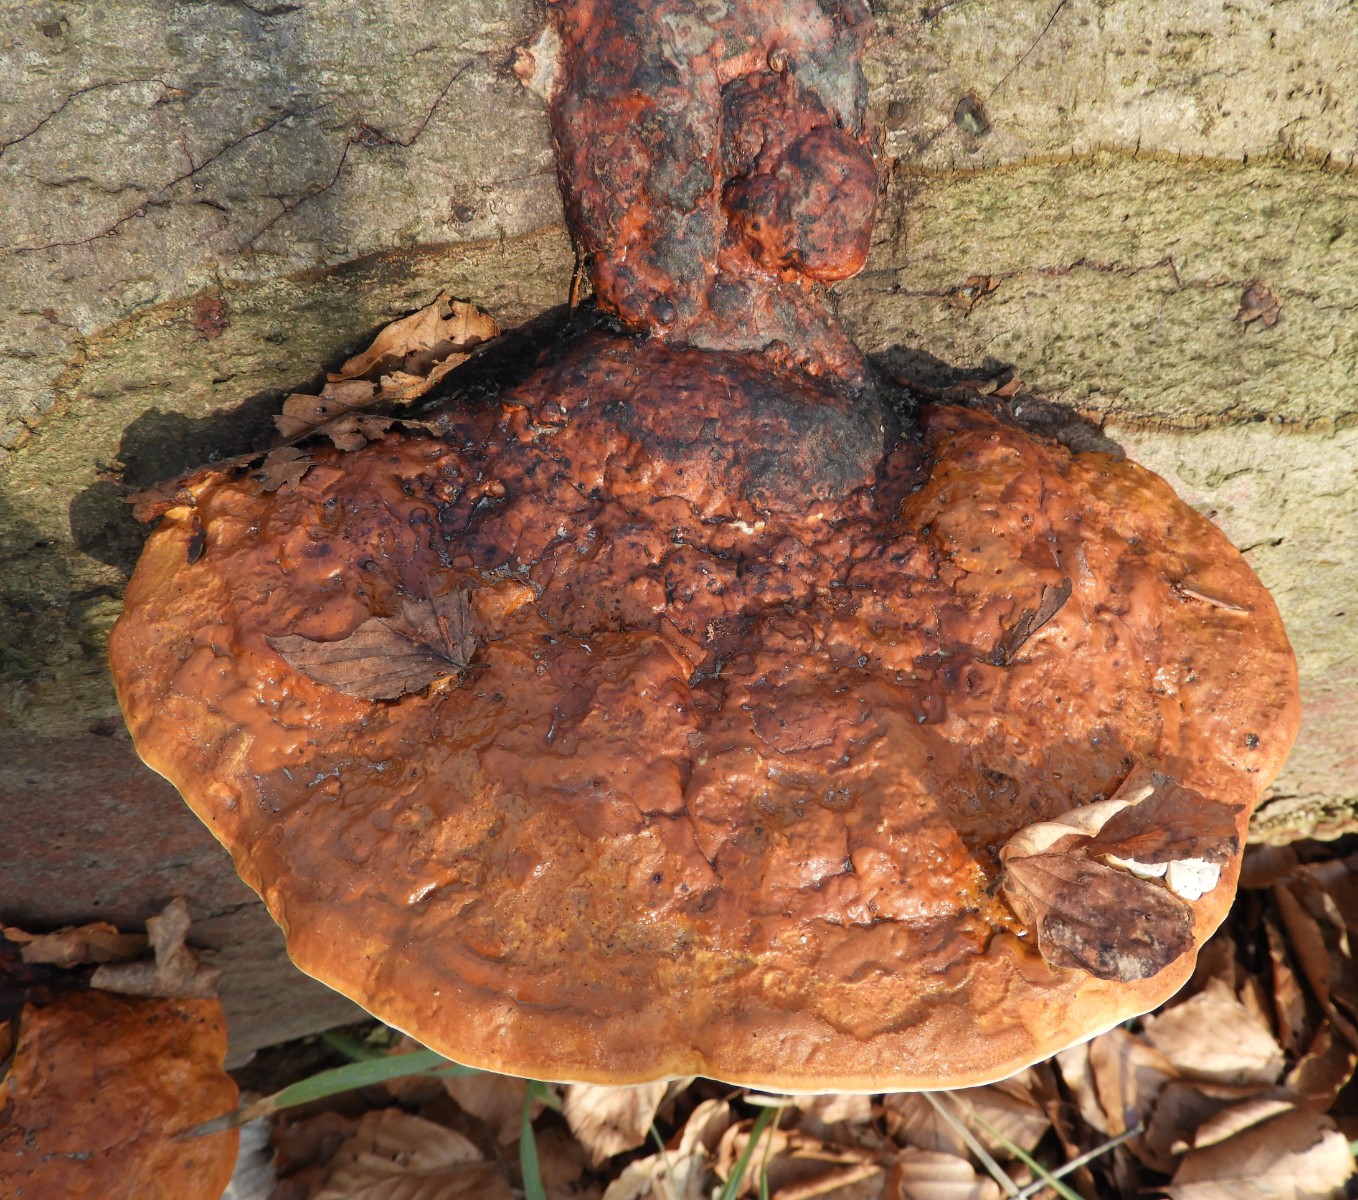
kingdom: Fungi
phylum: Basidiomycota
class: Agaricomycetes
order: Polyporales
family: Fomitopsidaceae
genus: Fomitopsis
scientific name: Fomitopsis pinicola
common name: randbæltet hovporesvamp
